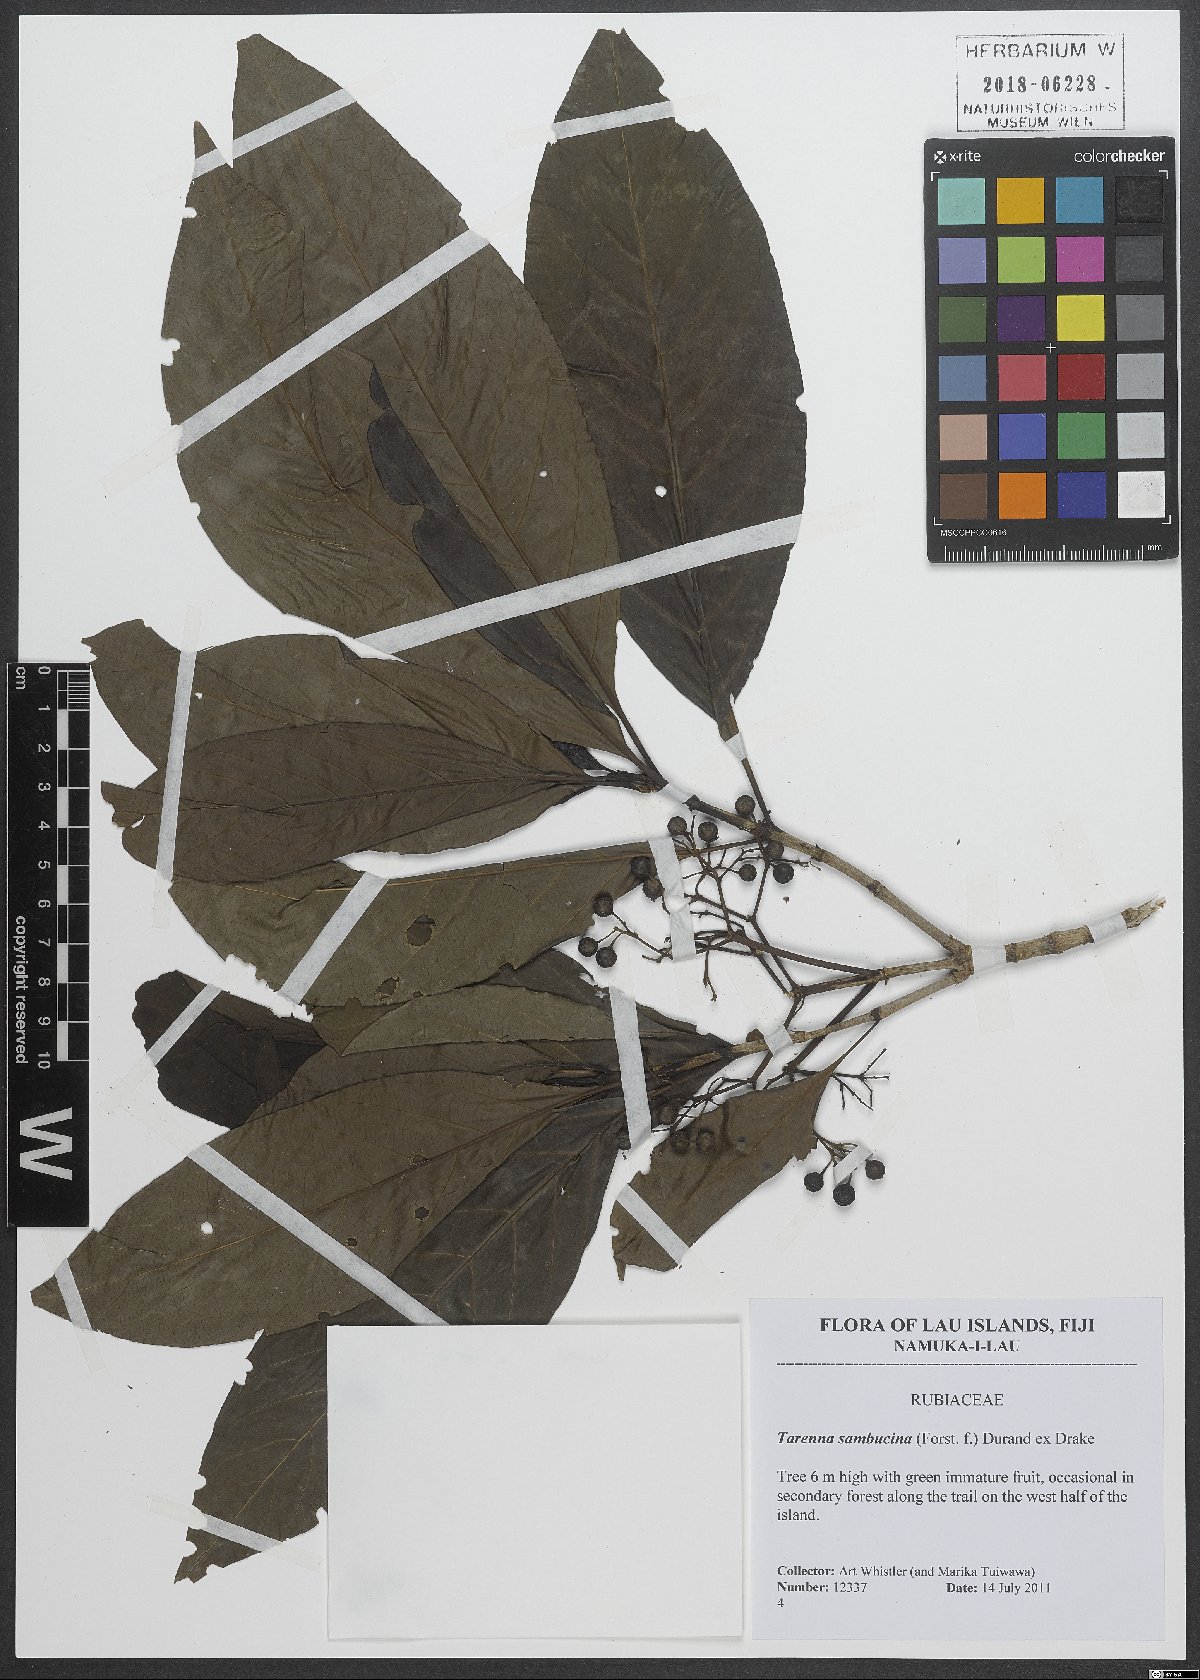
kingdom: Plantae
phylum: Tracheophyta
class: Magnoliopsida
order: Gentianales
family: Rubiaceae
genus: Tarenna
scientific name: Tarenna sambucina
